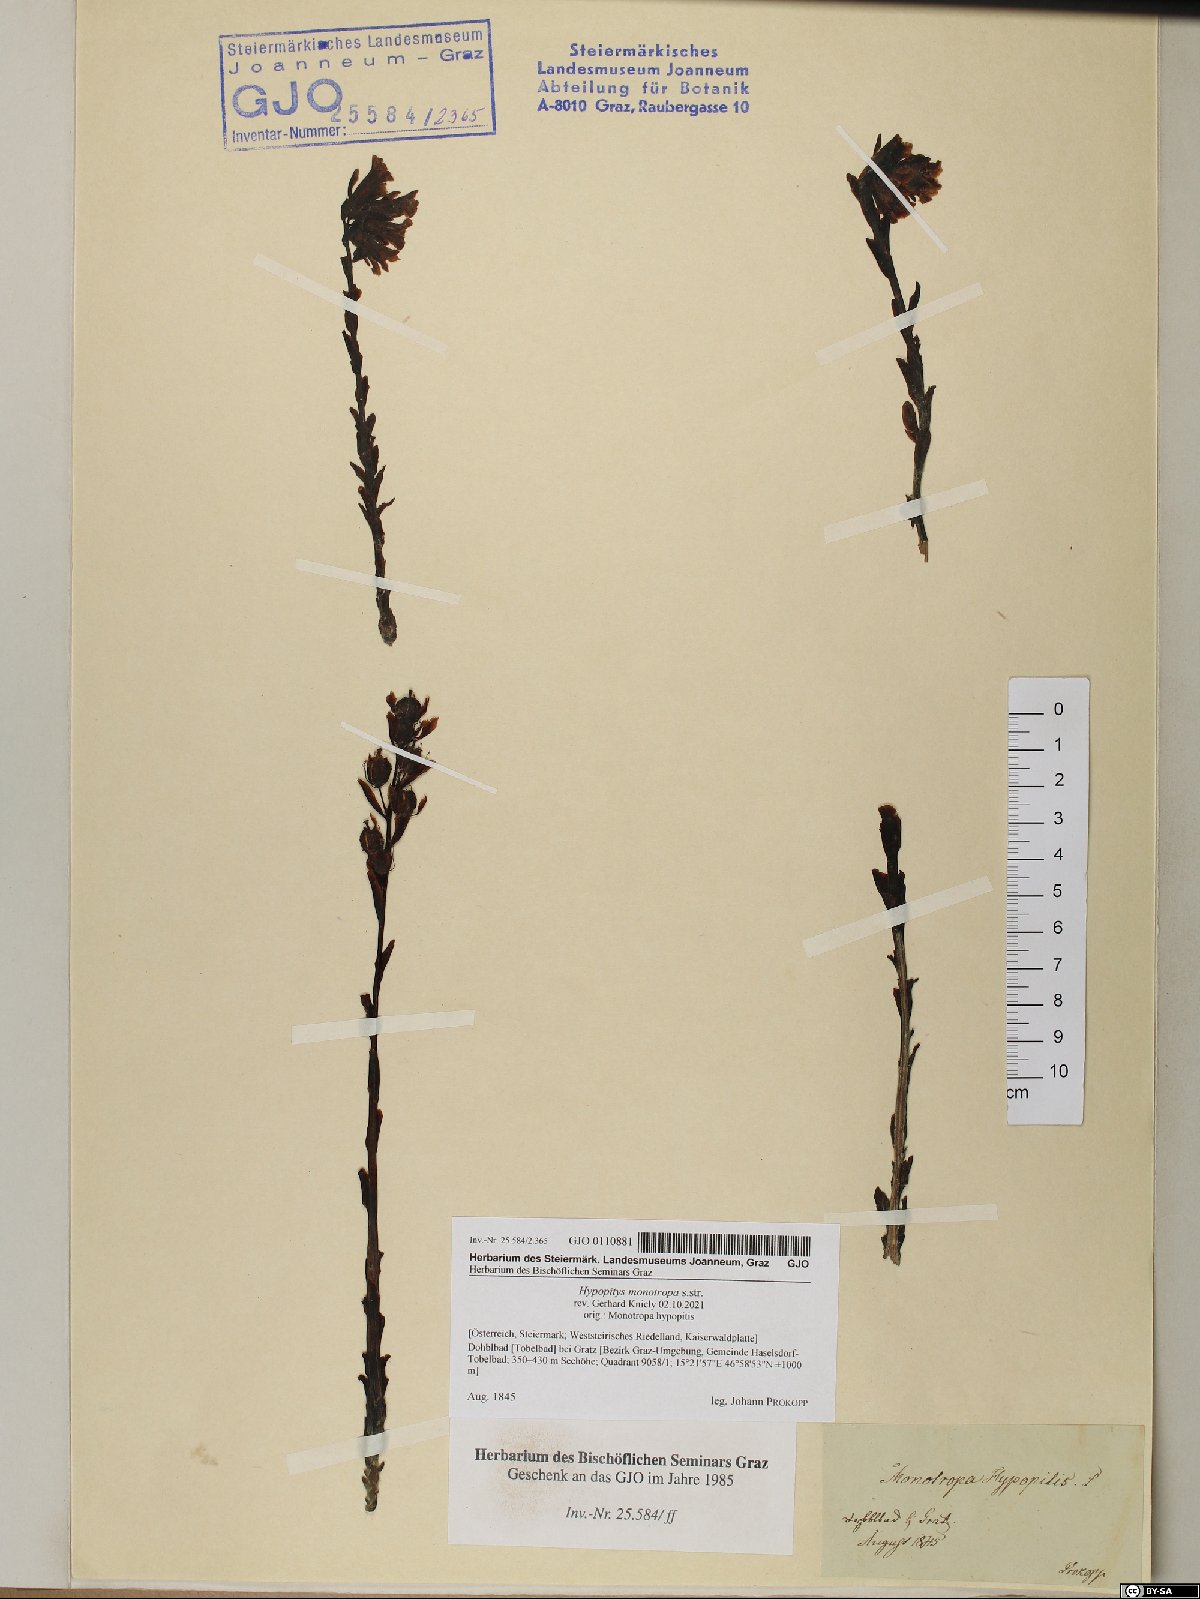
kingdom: Plantae
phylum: Tracheophyta
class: Magnoliopsida
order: Ericales
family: Ericaceae
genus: Hypopitys
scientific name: Hypopitys monotropa
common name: Yellow bird's-nest
